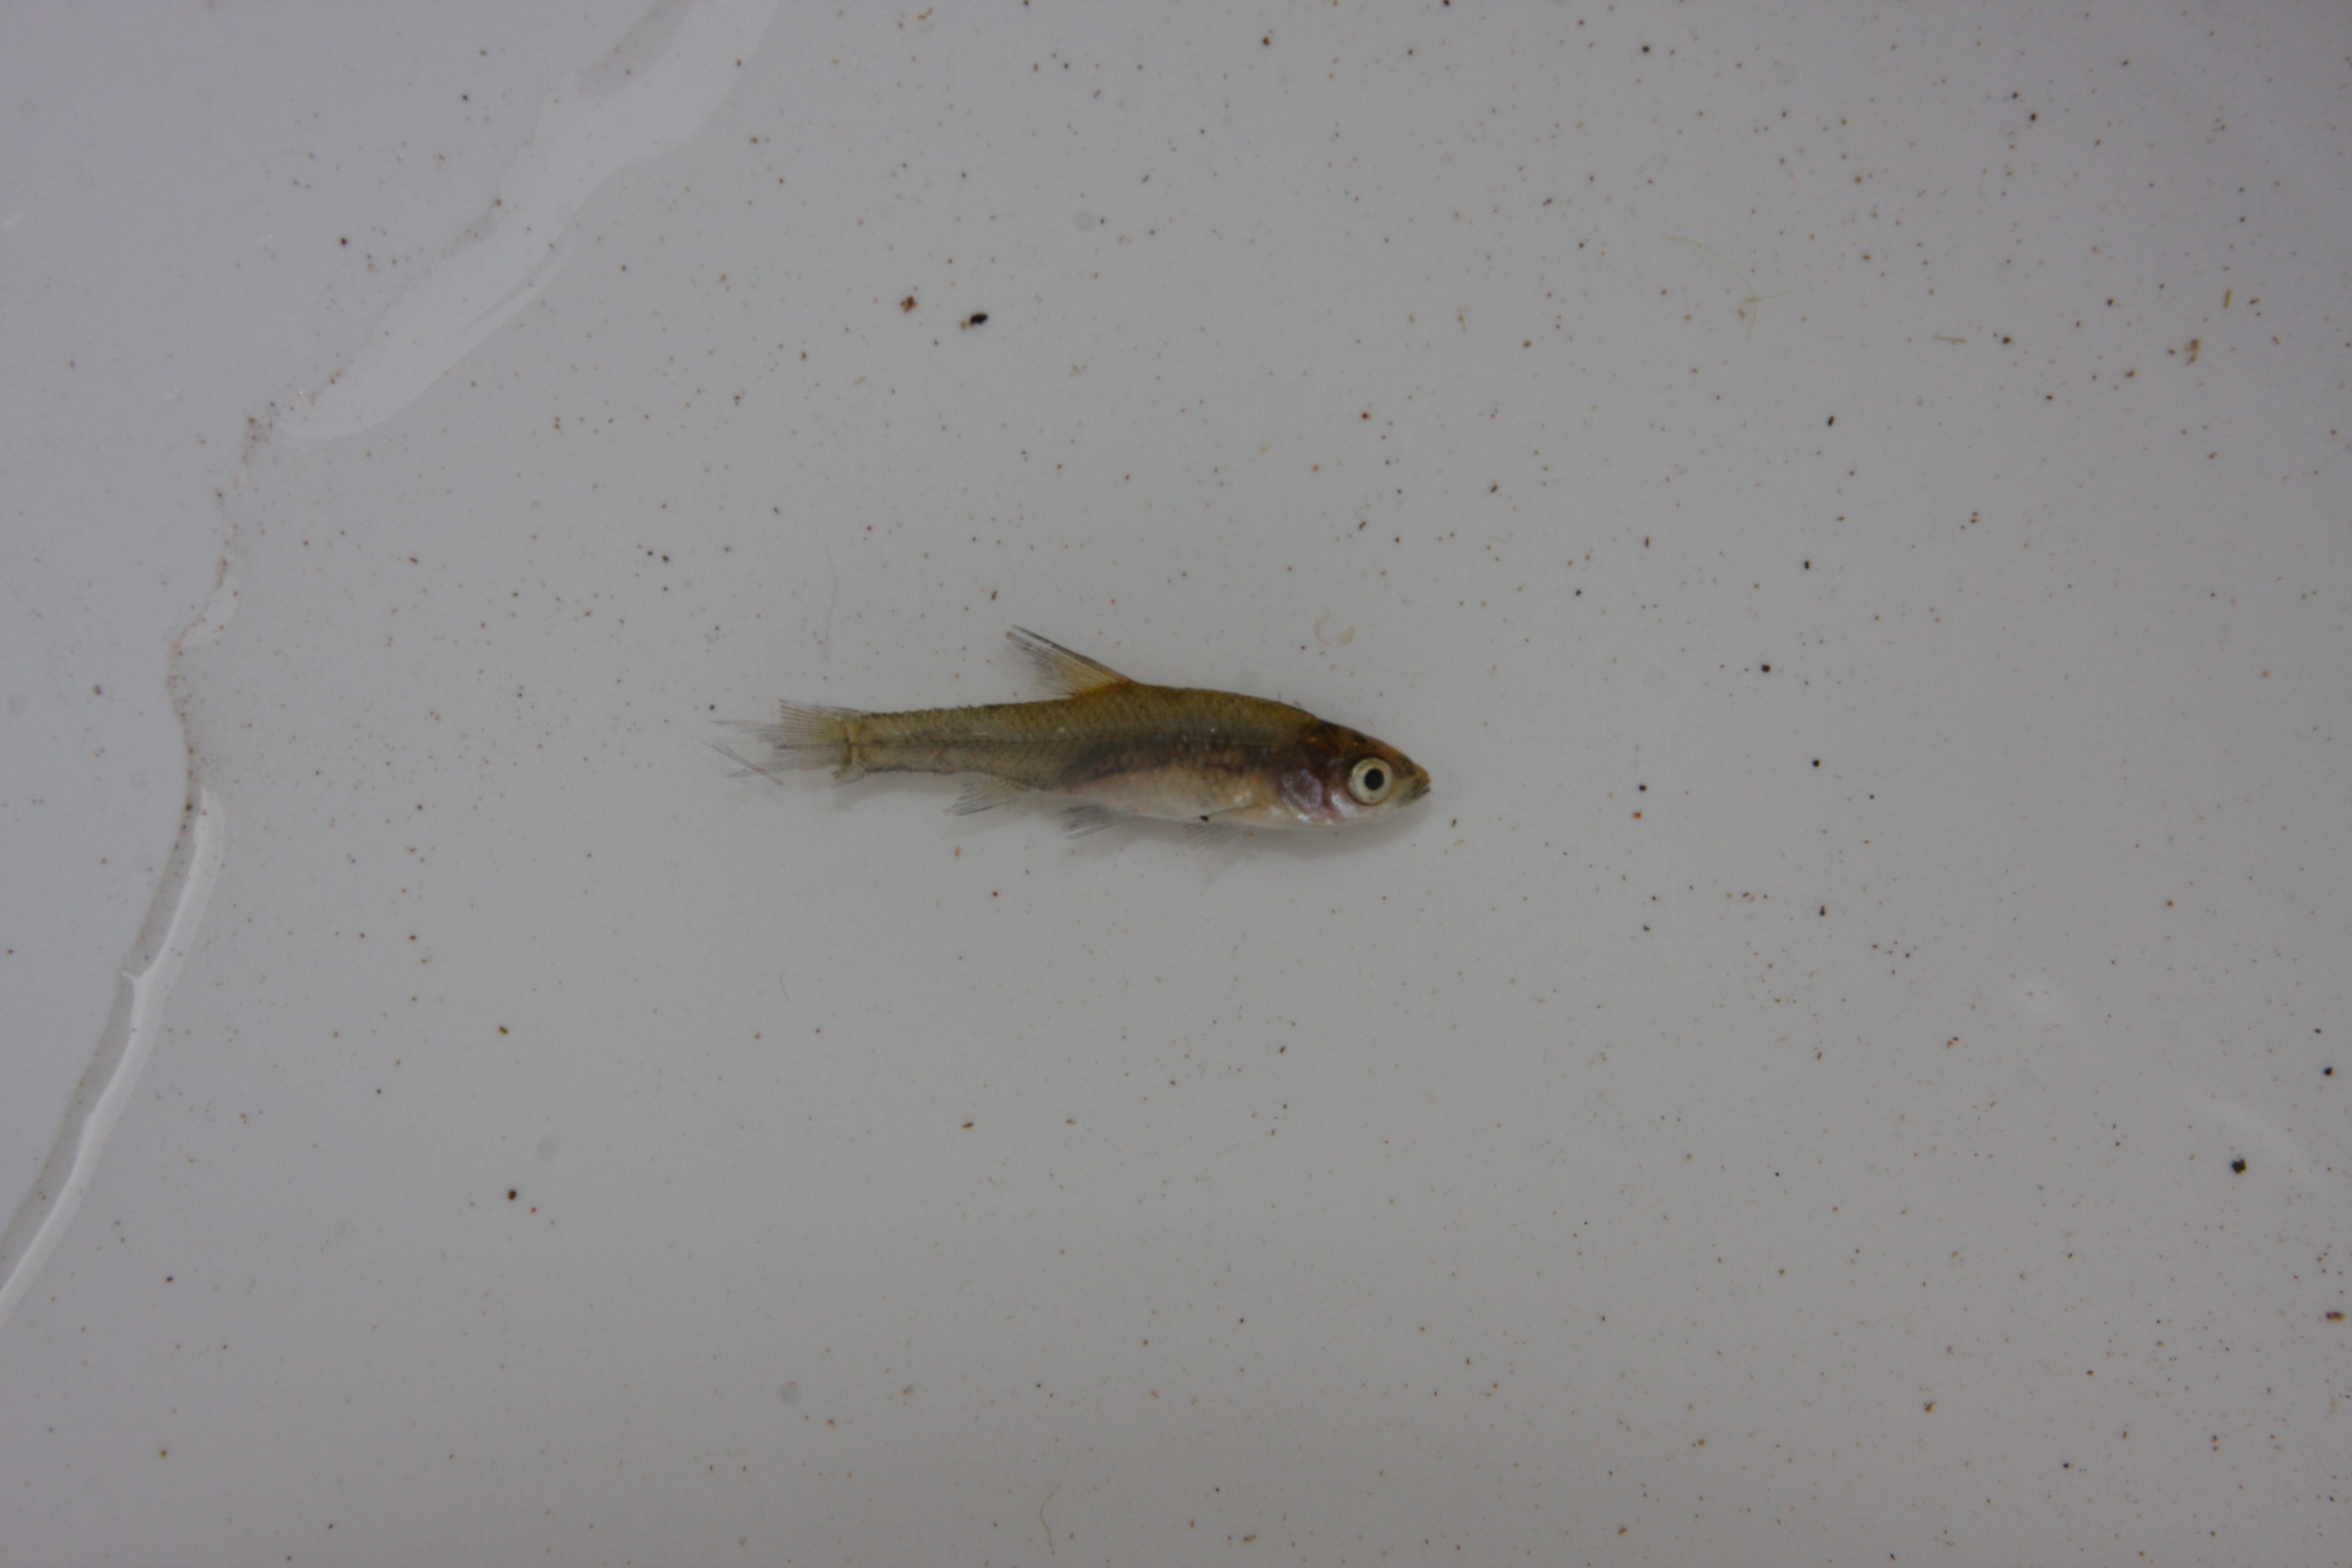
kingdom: Animalia
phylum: Chordata
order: Cypriniformes
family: Cyprinidae
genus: Barbus
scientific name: Barbus
